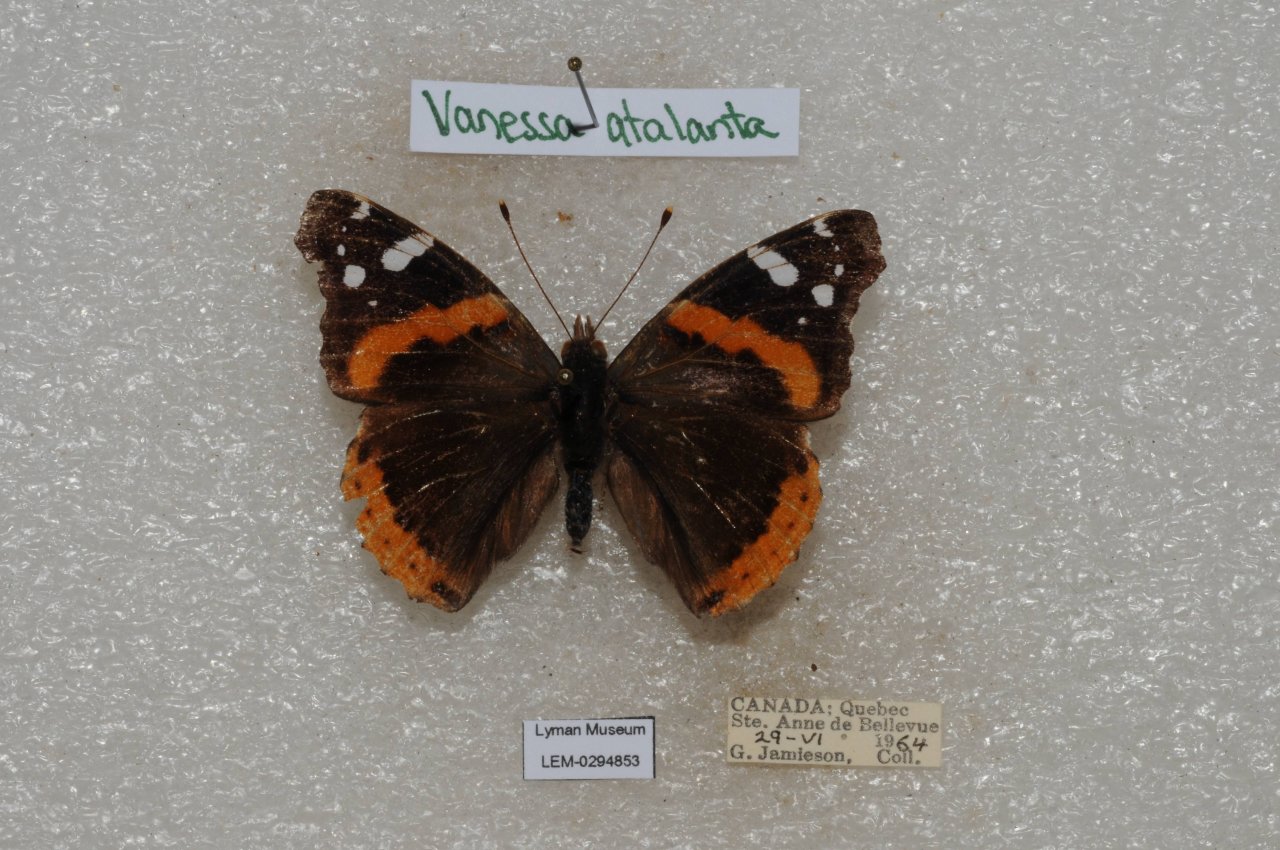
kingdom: Animalia
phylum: Arthropoda
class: Insecta
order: Lepidoptera
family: Nymphalidae
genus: Vanessa
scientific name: Vanessa atalanta
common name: Red Admiral
